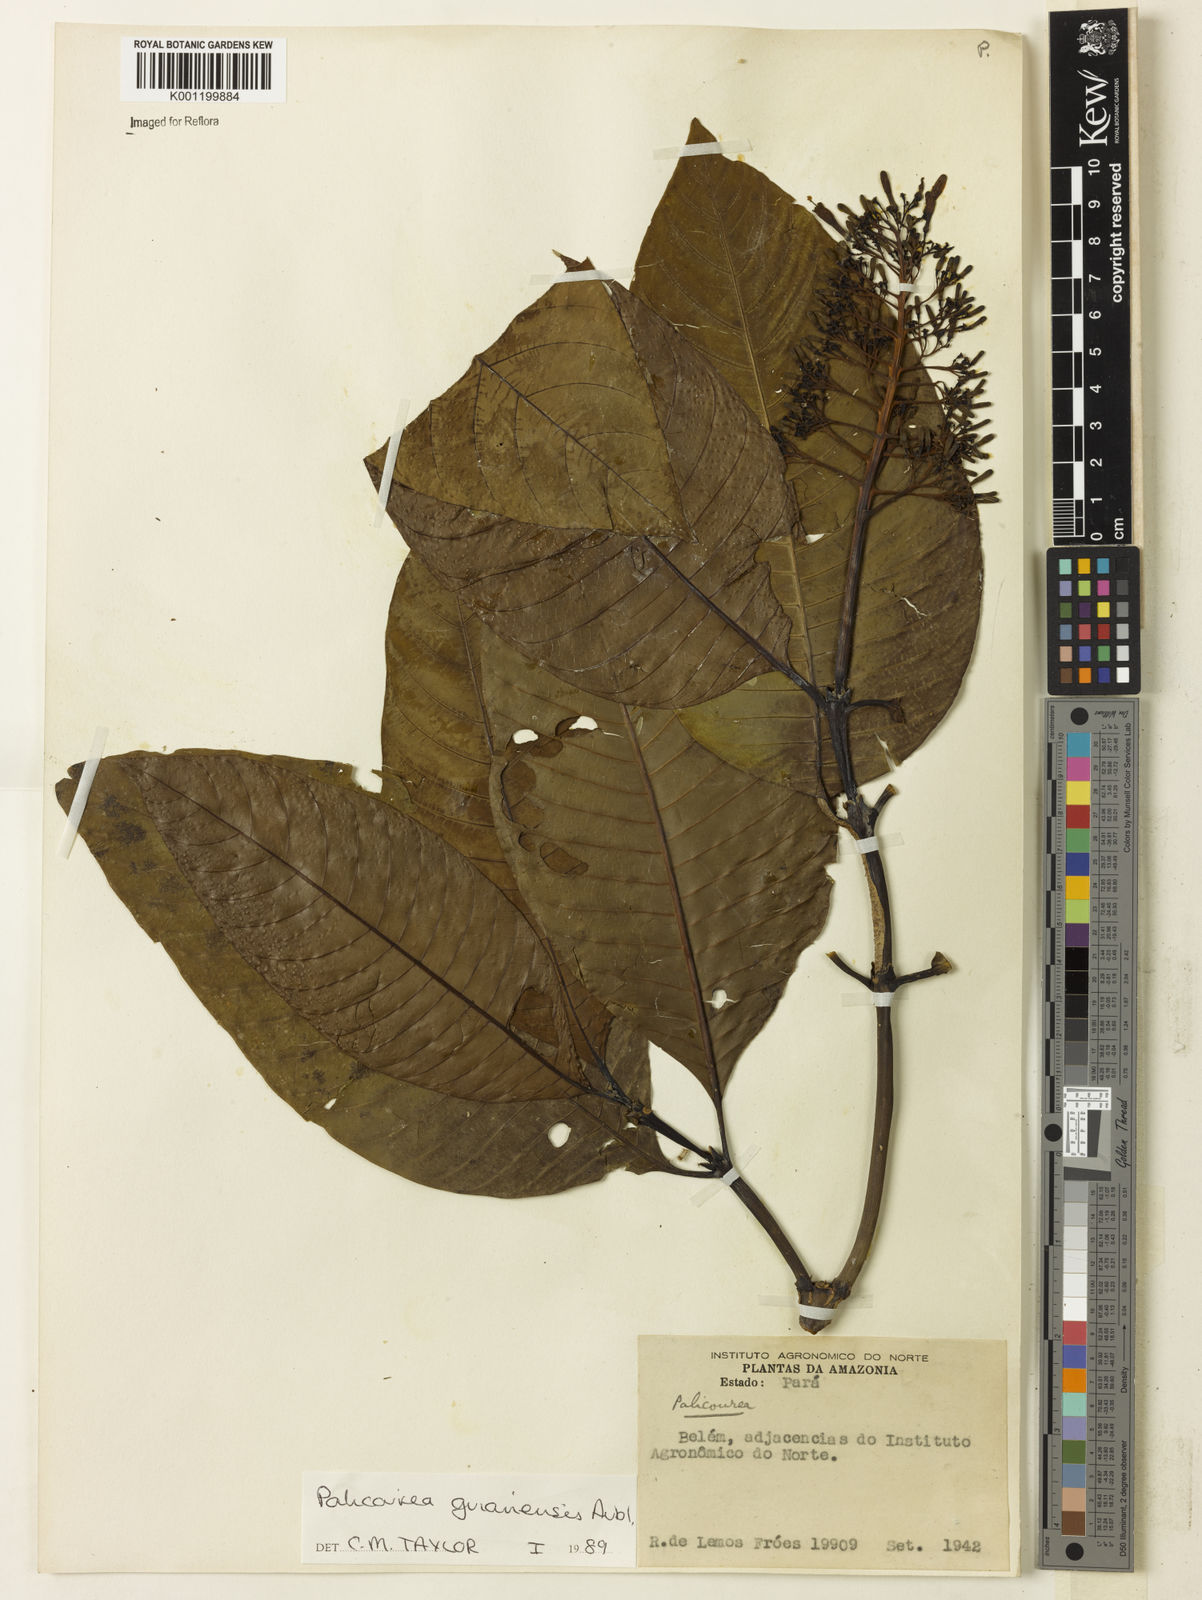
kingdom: Plantae
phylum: Tracheophyta
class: Magnoliopsida
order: Gentianales
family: Rubiaceae
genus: Palicourea
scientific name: Palicourea guianensis
